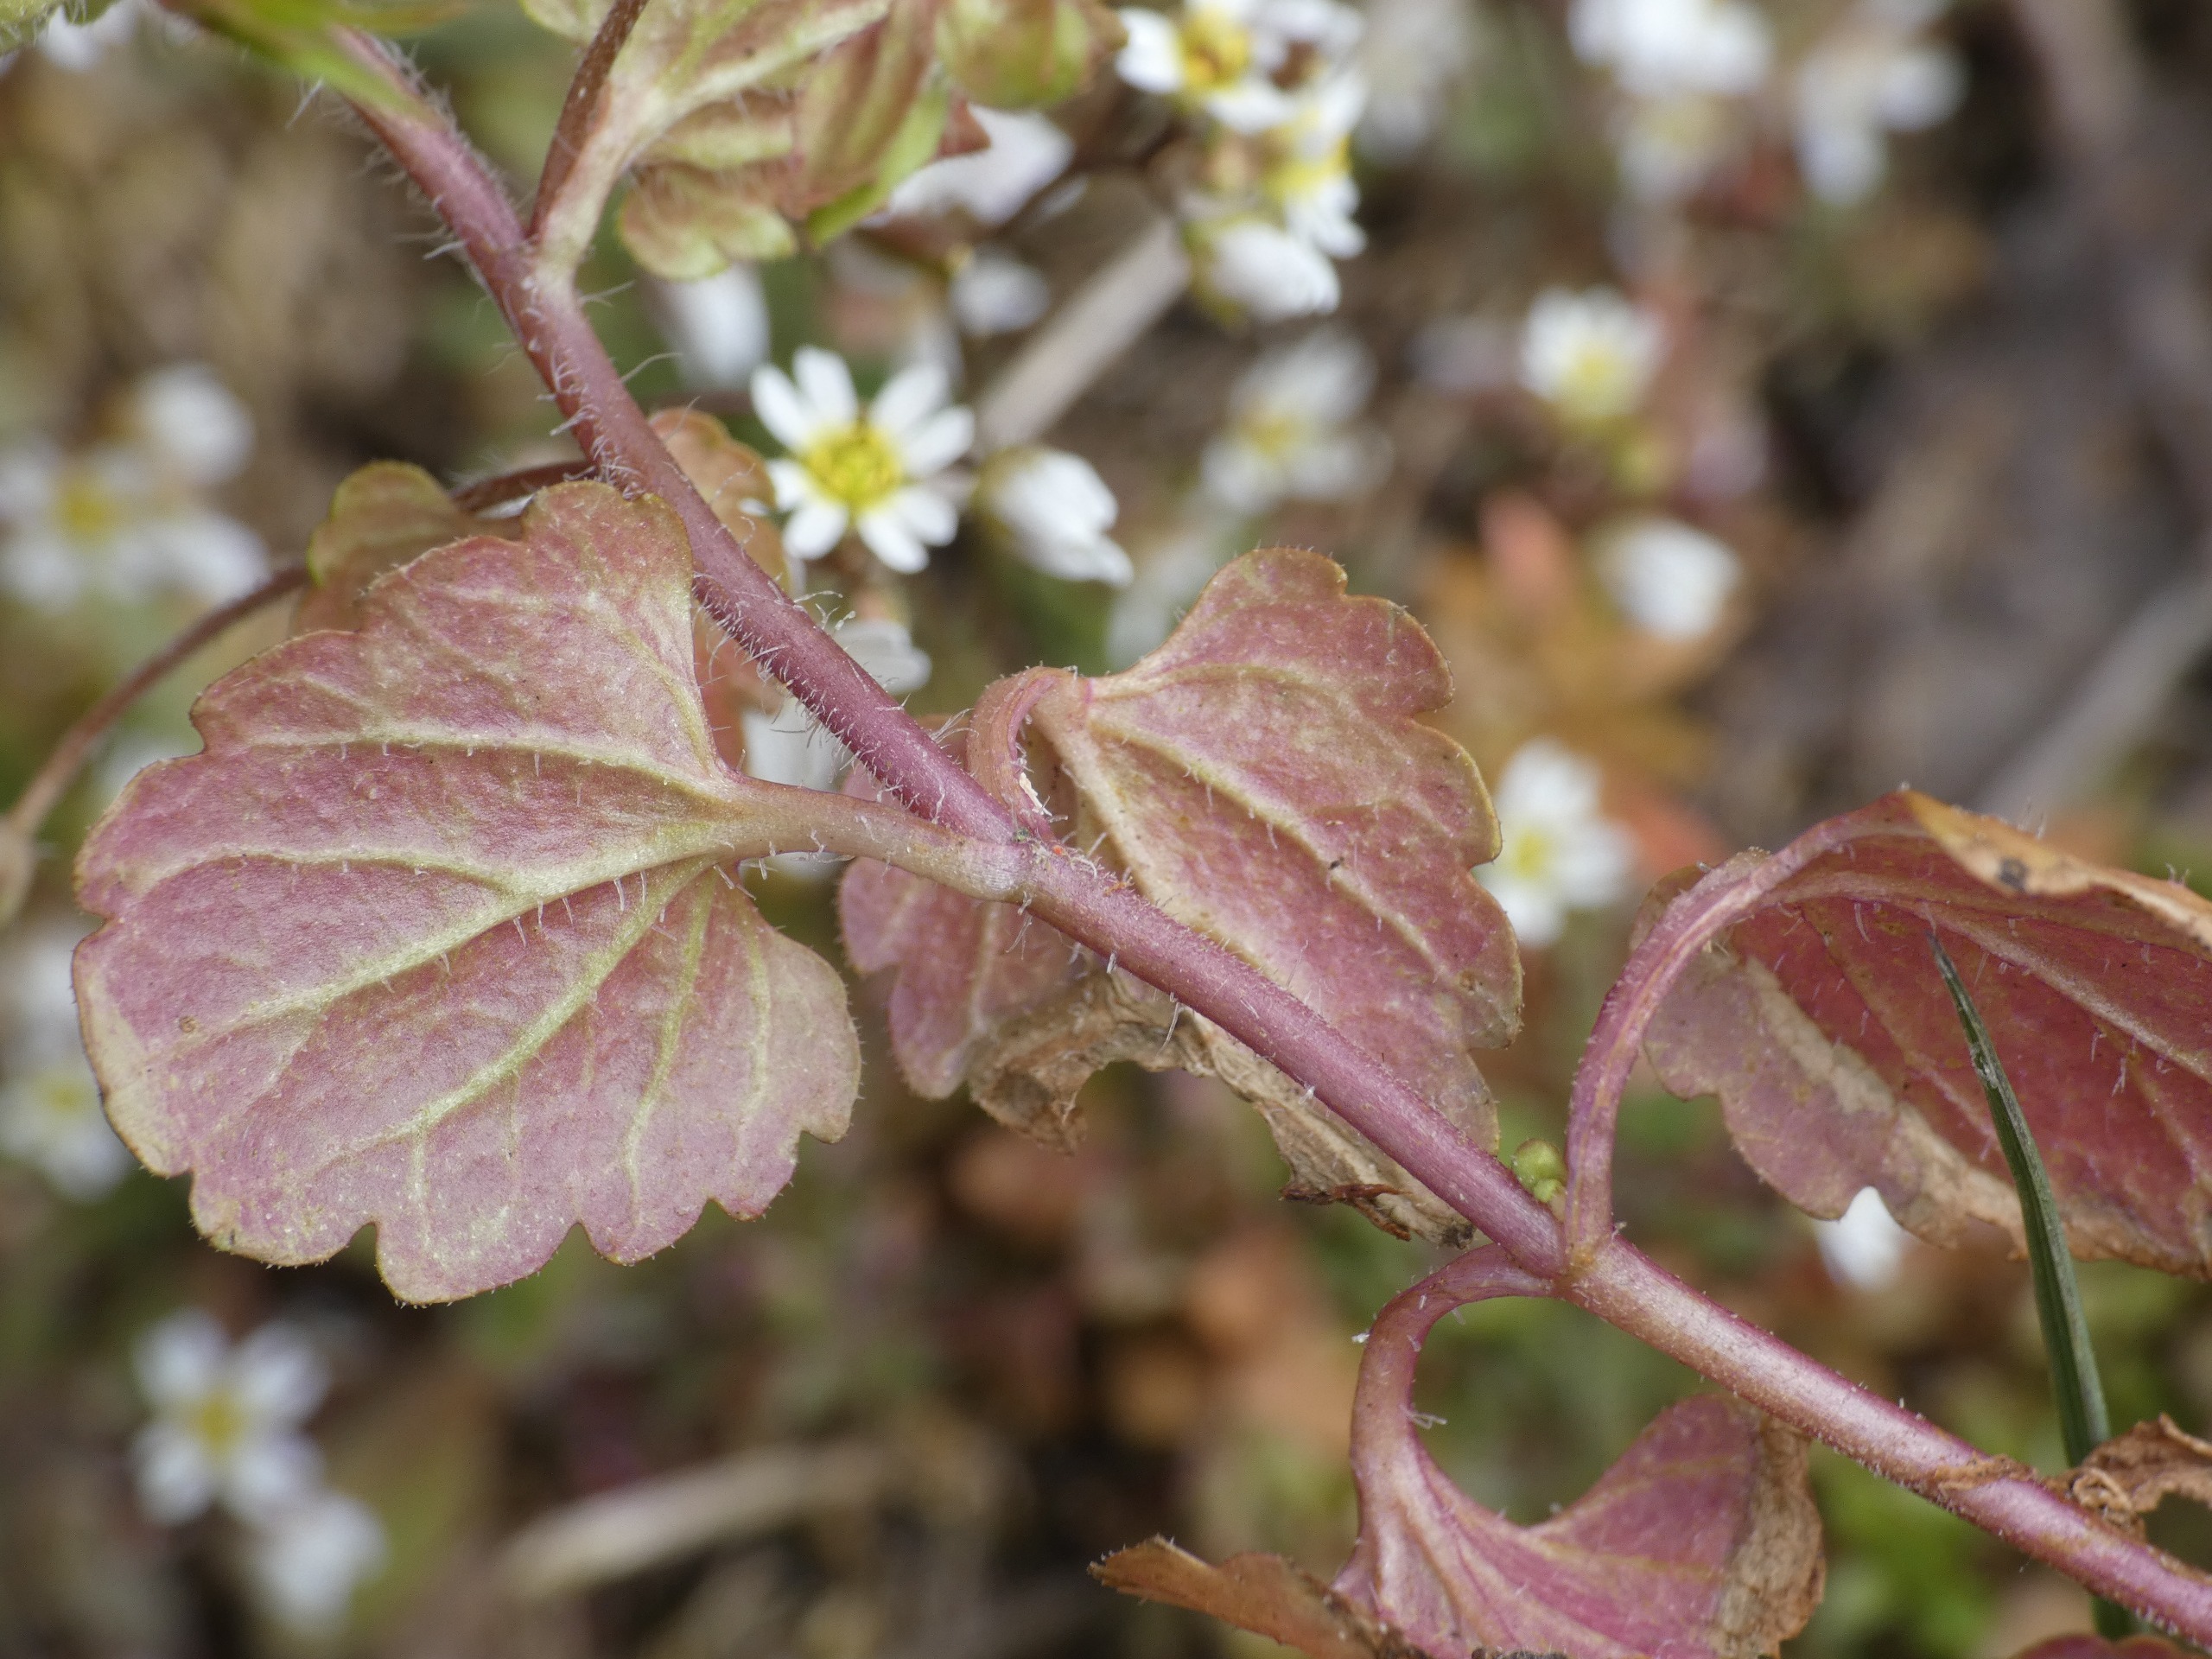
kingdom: Plantae
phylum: Tracheophyta
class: Magnoliopsida
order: Lamiales
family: Plantaginaceae
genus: Veronica
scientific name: Veronica persica
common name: Storkronet ærenpris
